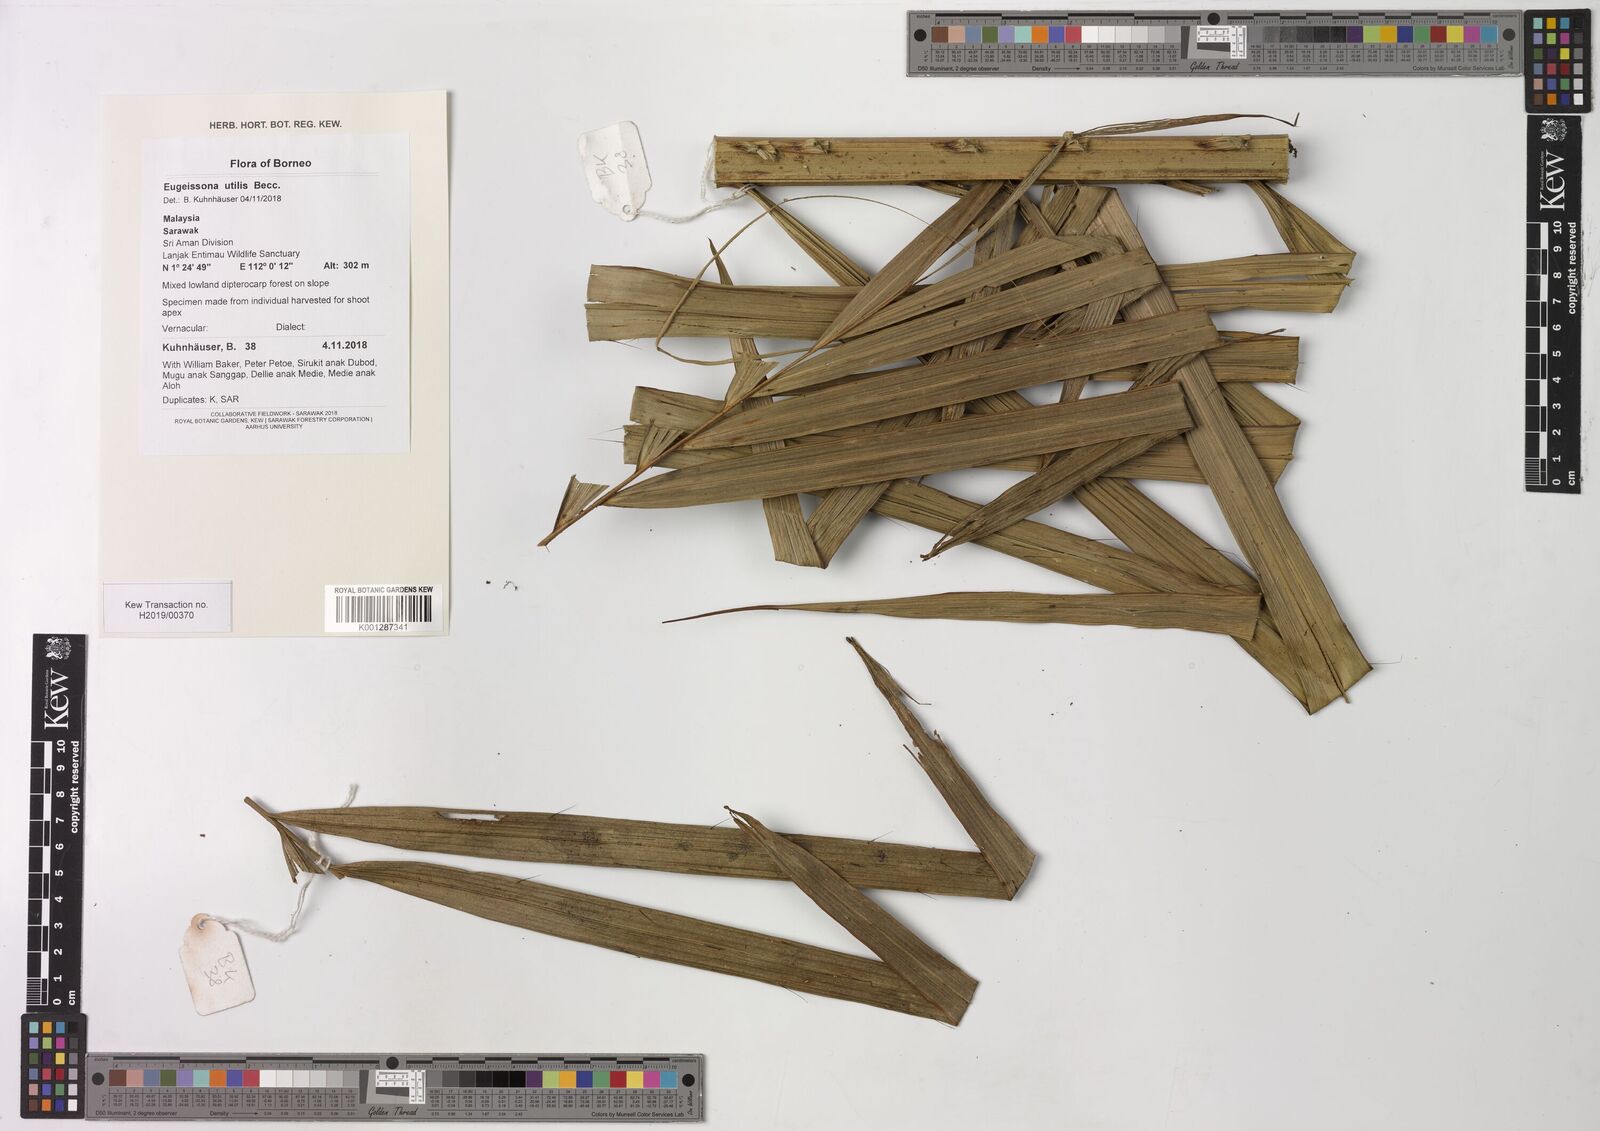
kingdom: Plantae
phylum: Tracheophyta
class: Liliopsida
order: Arecales
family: Arecaceae
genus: Eugeissona
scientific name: Eugeissona utilis
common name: Wild bornean sago palm
